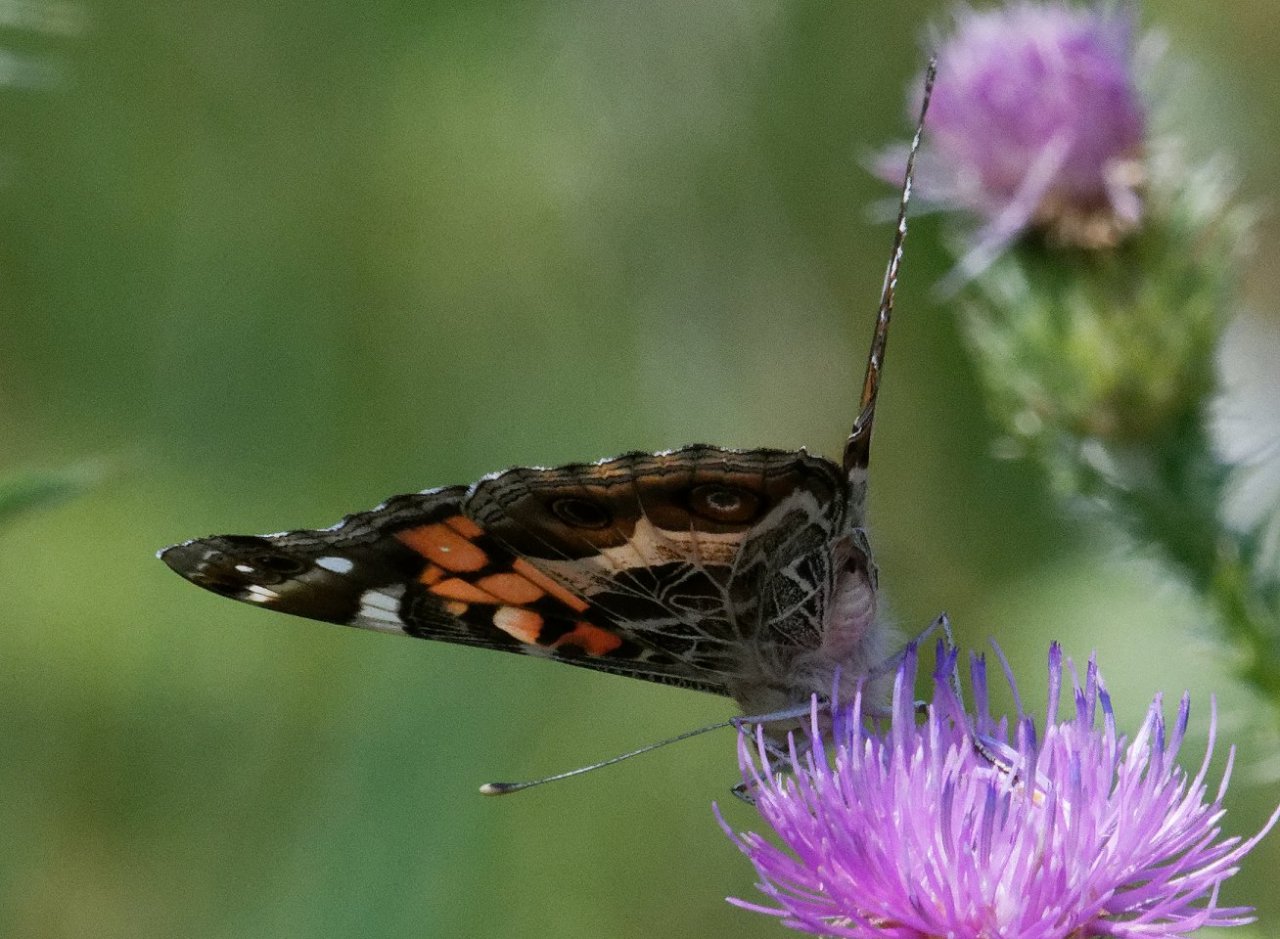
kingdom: Animalia
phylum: Arthropoda
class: Insecta
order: Lepidoptera
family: Nymphalidae
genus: Vanessa
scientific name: Vanessa virginiensis
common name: American Lady
